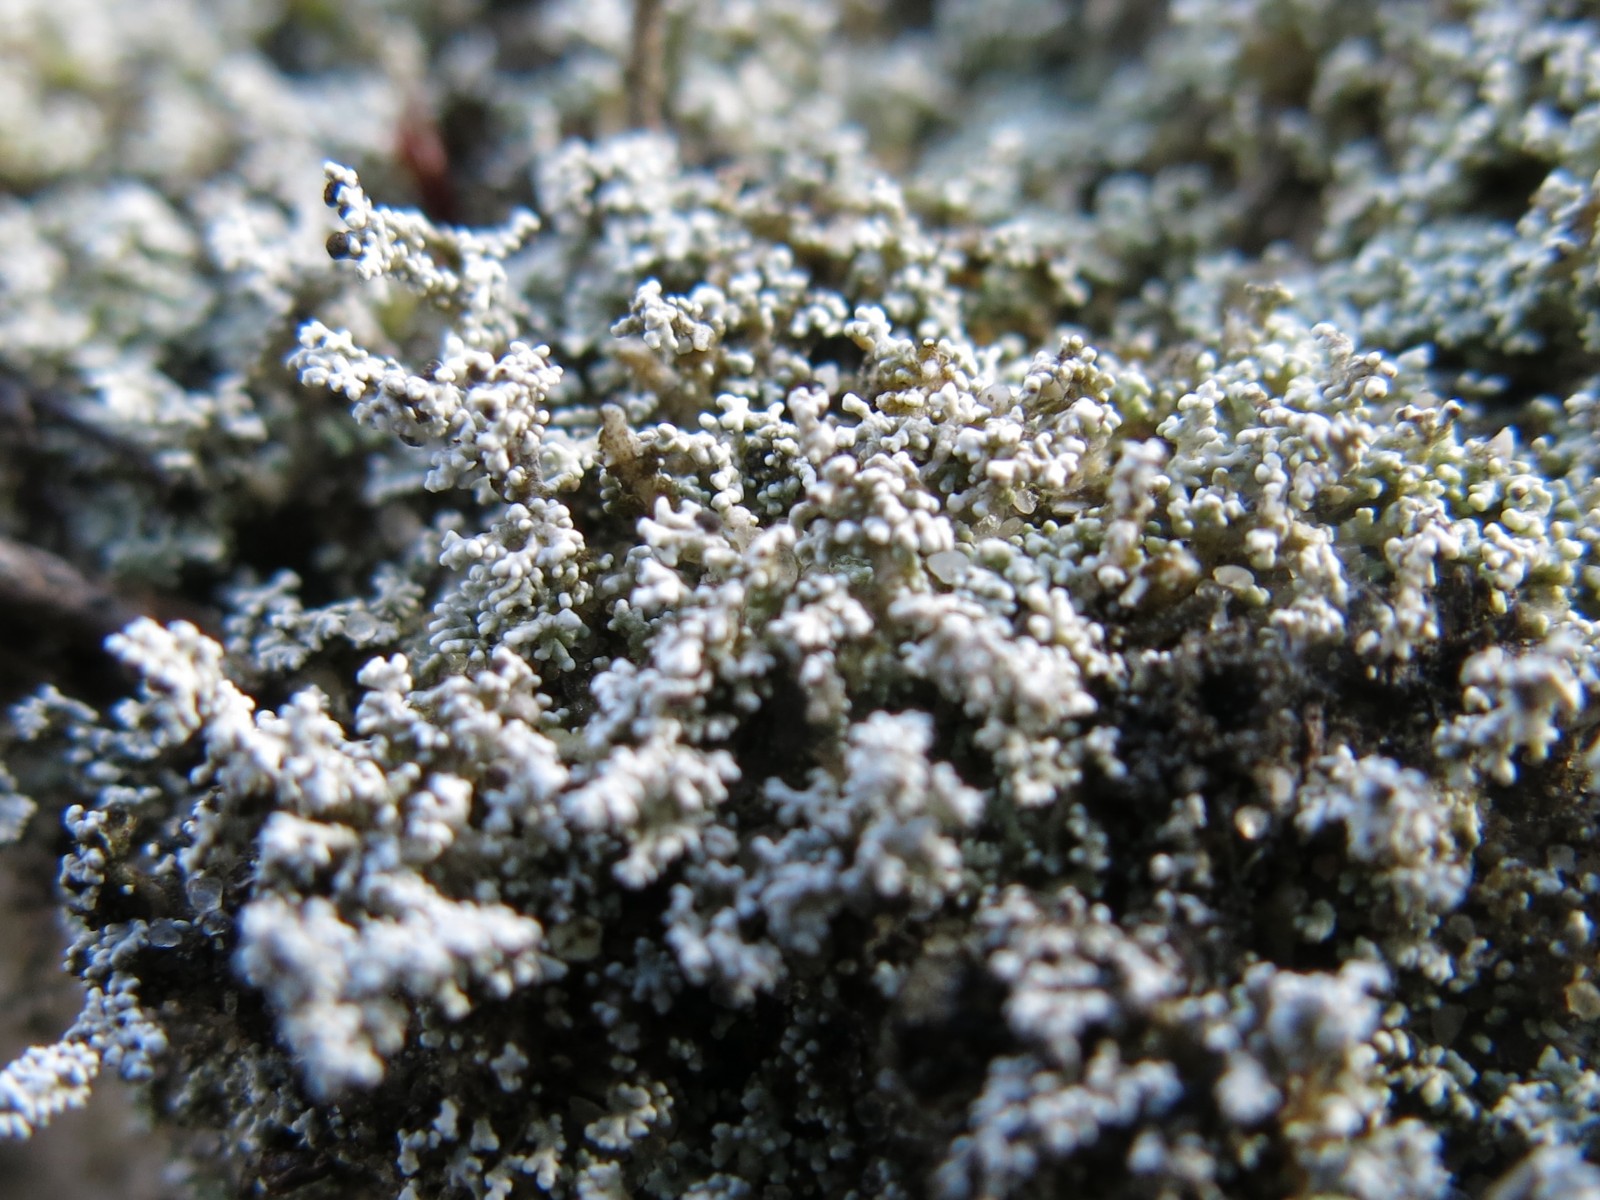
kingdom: Fungi
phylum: Ascomycota
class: Lecanoromycetes
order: Lecanorales
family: Stereocaulaceae
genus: Stereocaulon
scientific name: Stereocaulon saxatile
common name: klit-korallav
